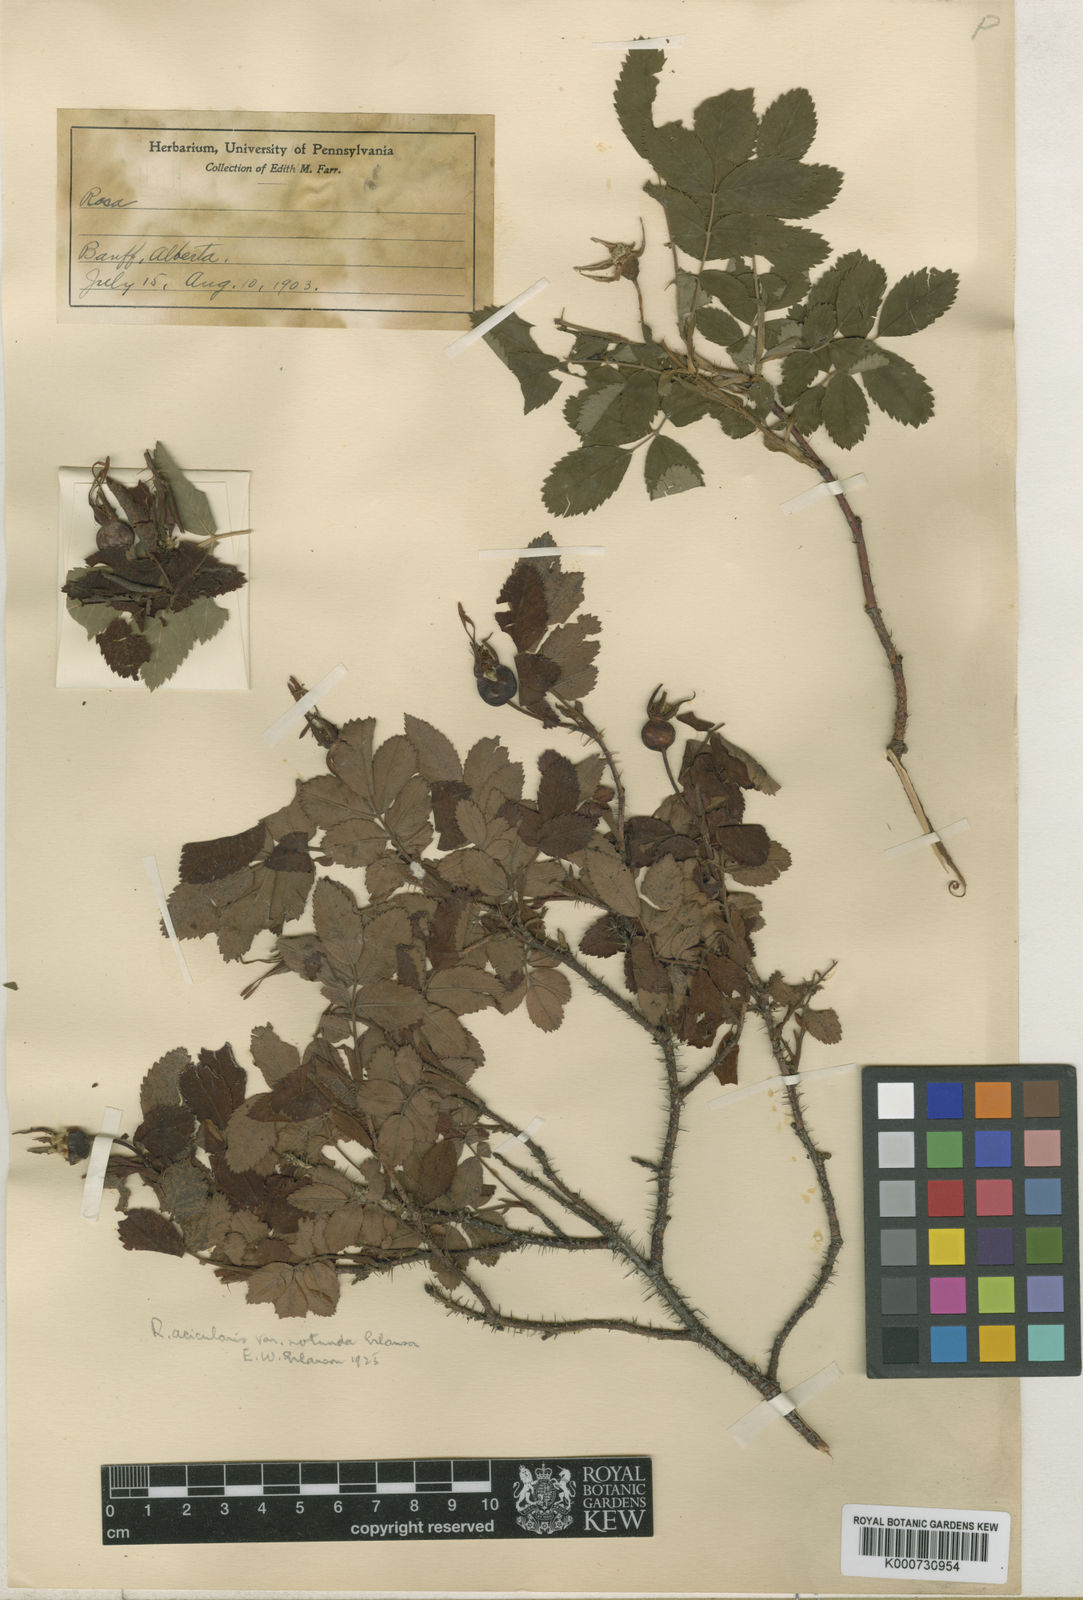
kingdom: Plantae
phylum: Tracheophyta
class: Magnoliopsida
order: Rosales
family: Rosaceae
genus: Rosa
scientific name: Rosa acicularis
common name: Prickly rose
